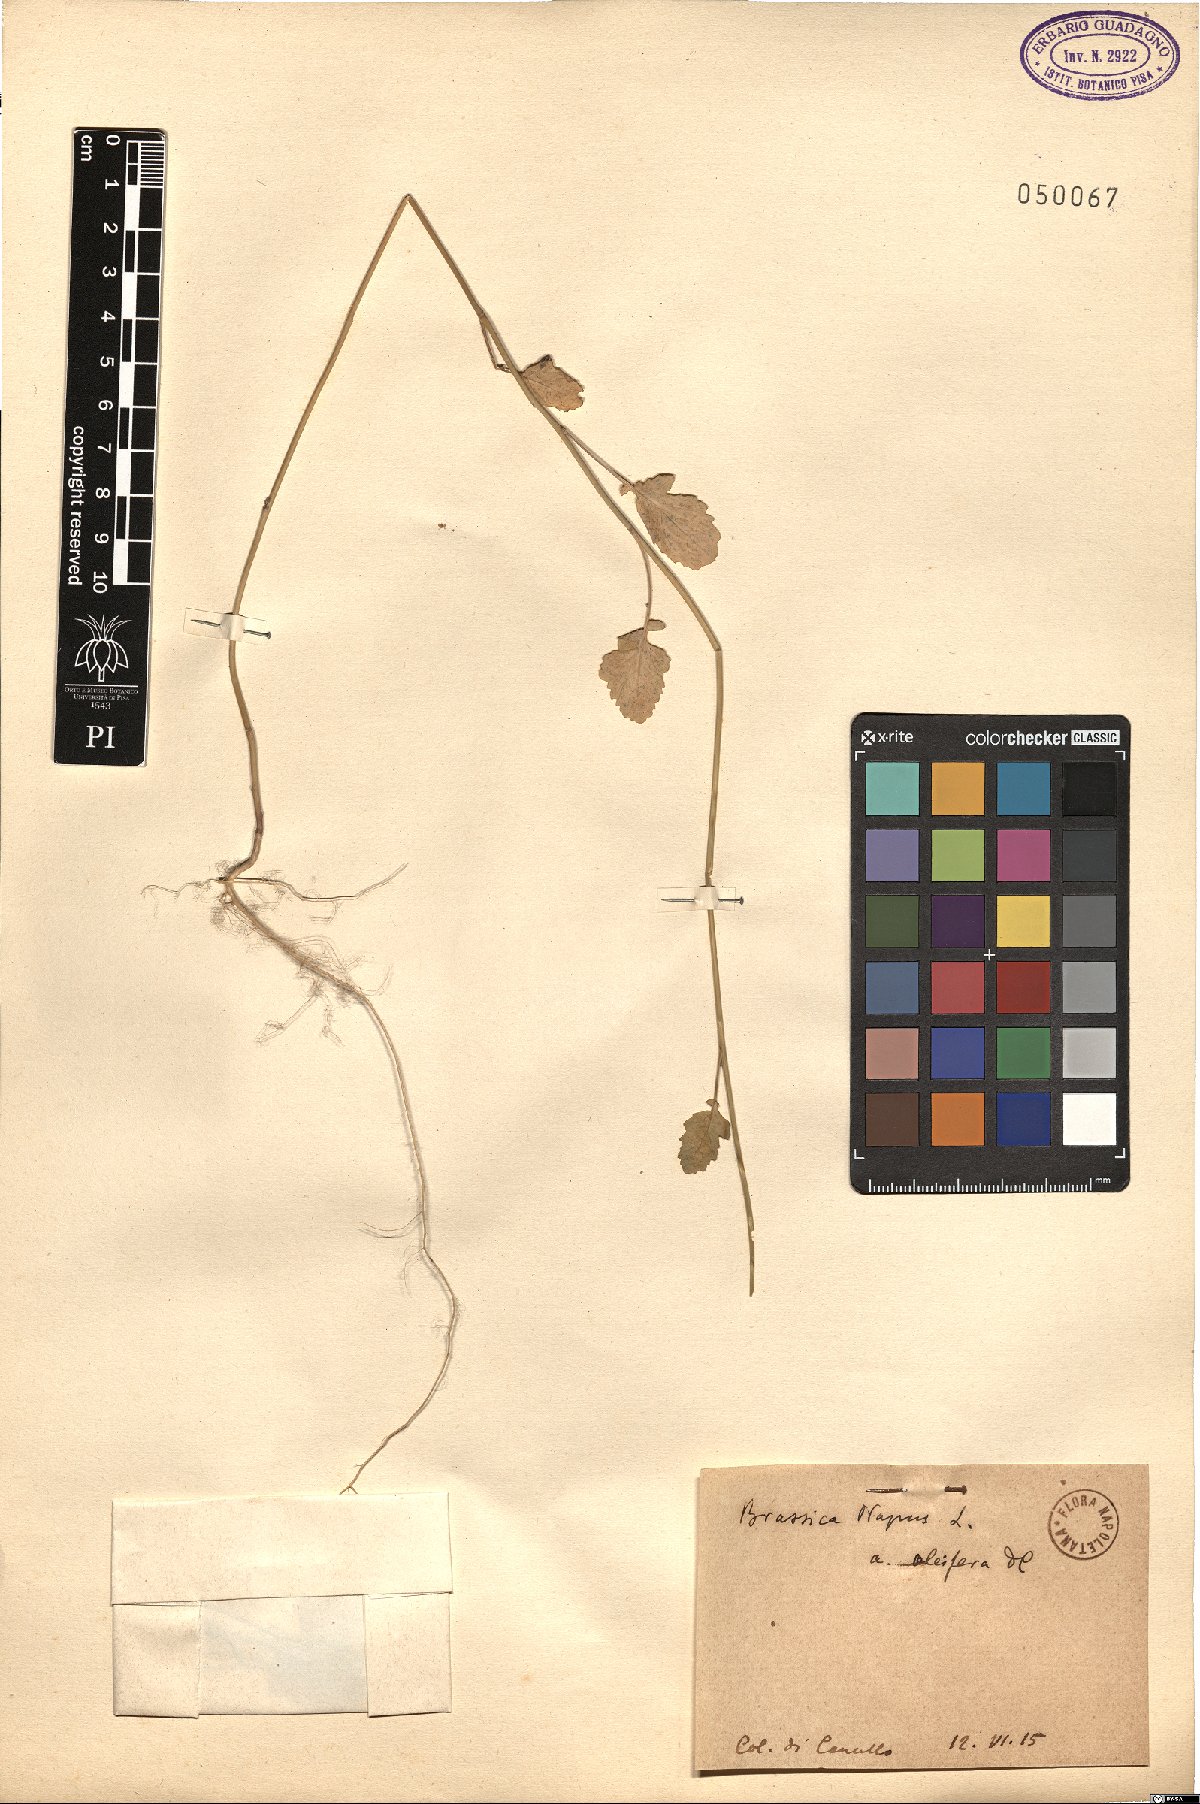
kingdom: Plantae
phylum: Tracheophyta
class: Magnoliopsida
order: Brassicales
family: Brassicaceae
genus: Brassica
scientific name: Brassica napus
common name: Rape
